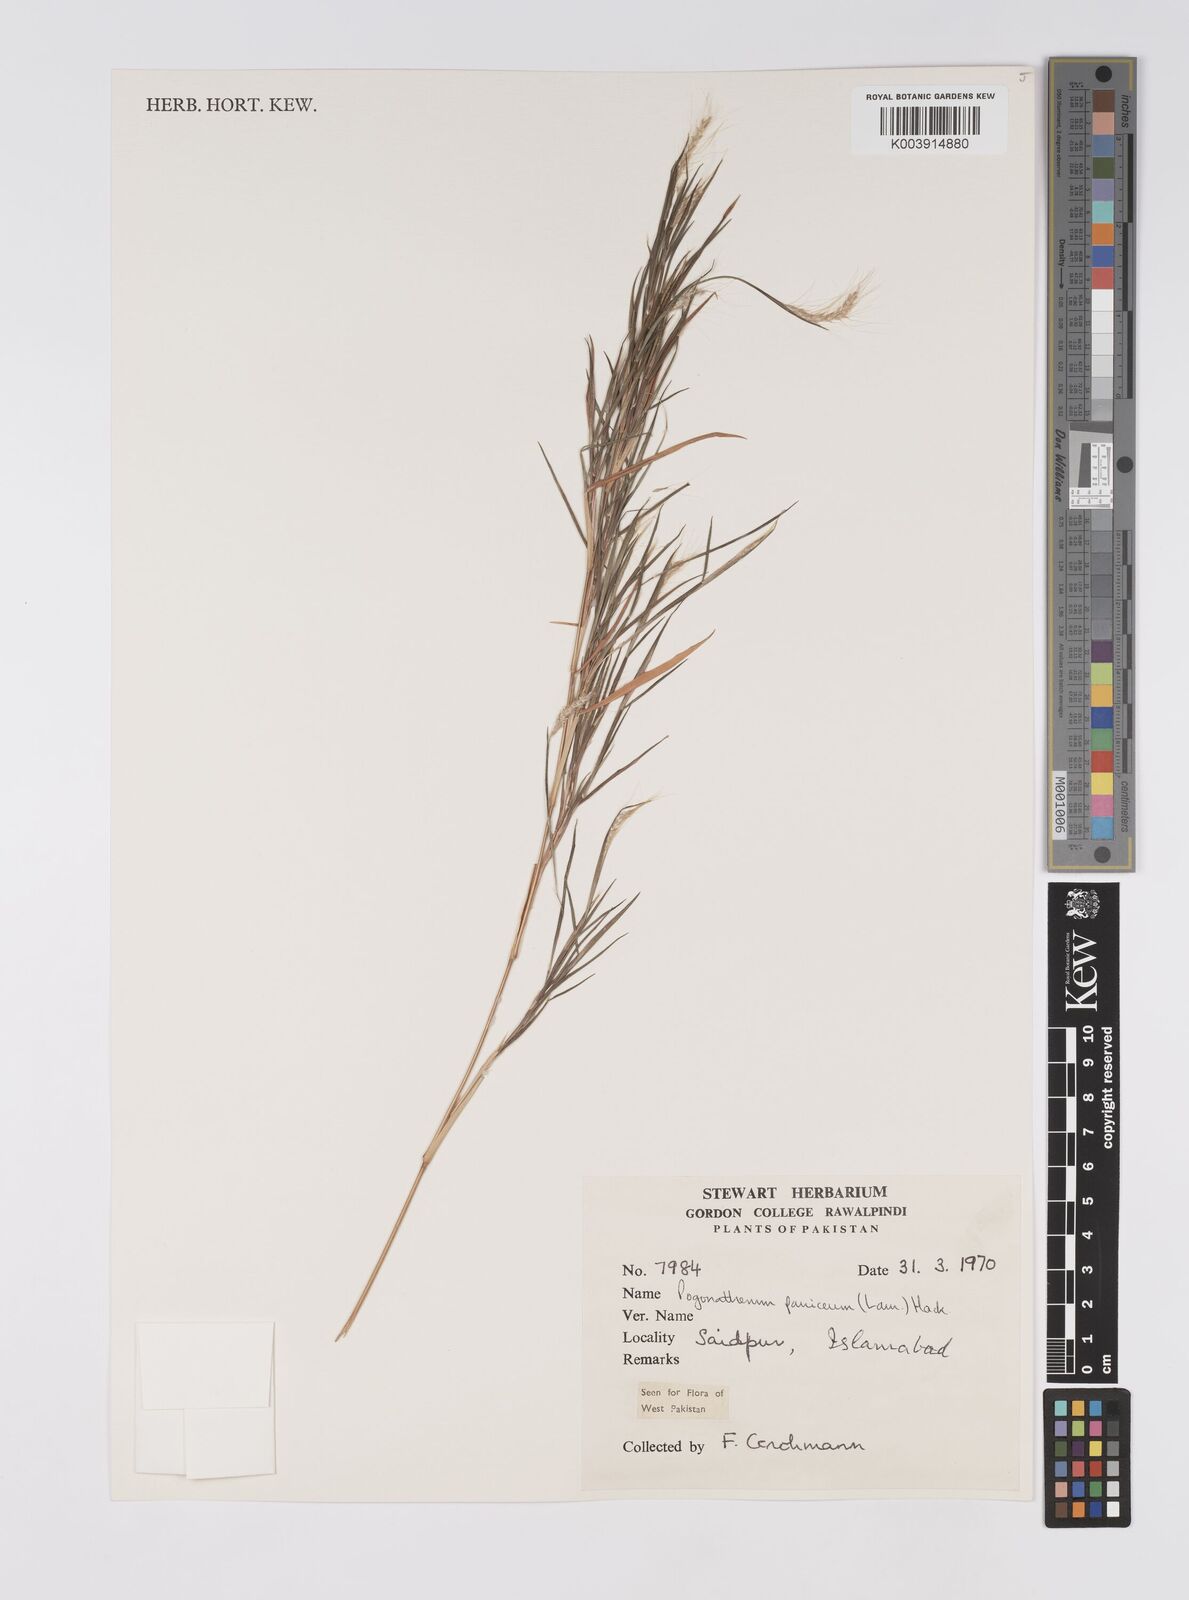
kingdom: Plantae
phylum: Tracheophyta
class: Liliopsida
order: Poales
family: Poaceae
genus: Pogonatherum
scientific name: Pogonatherum paniceum
